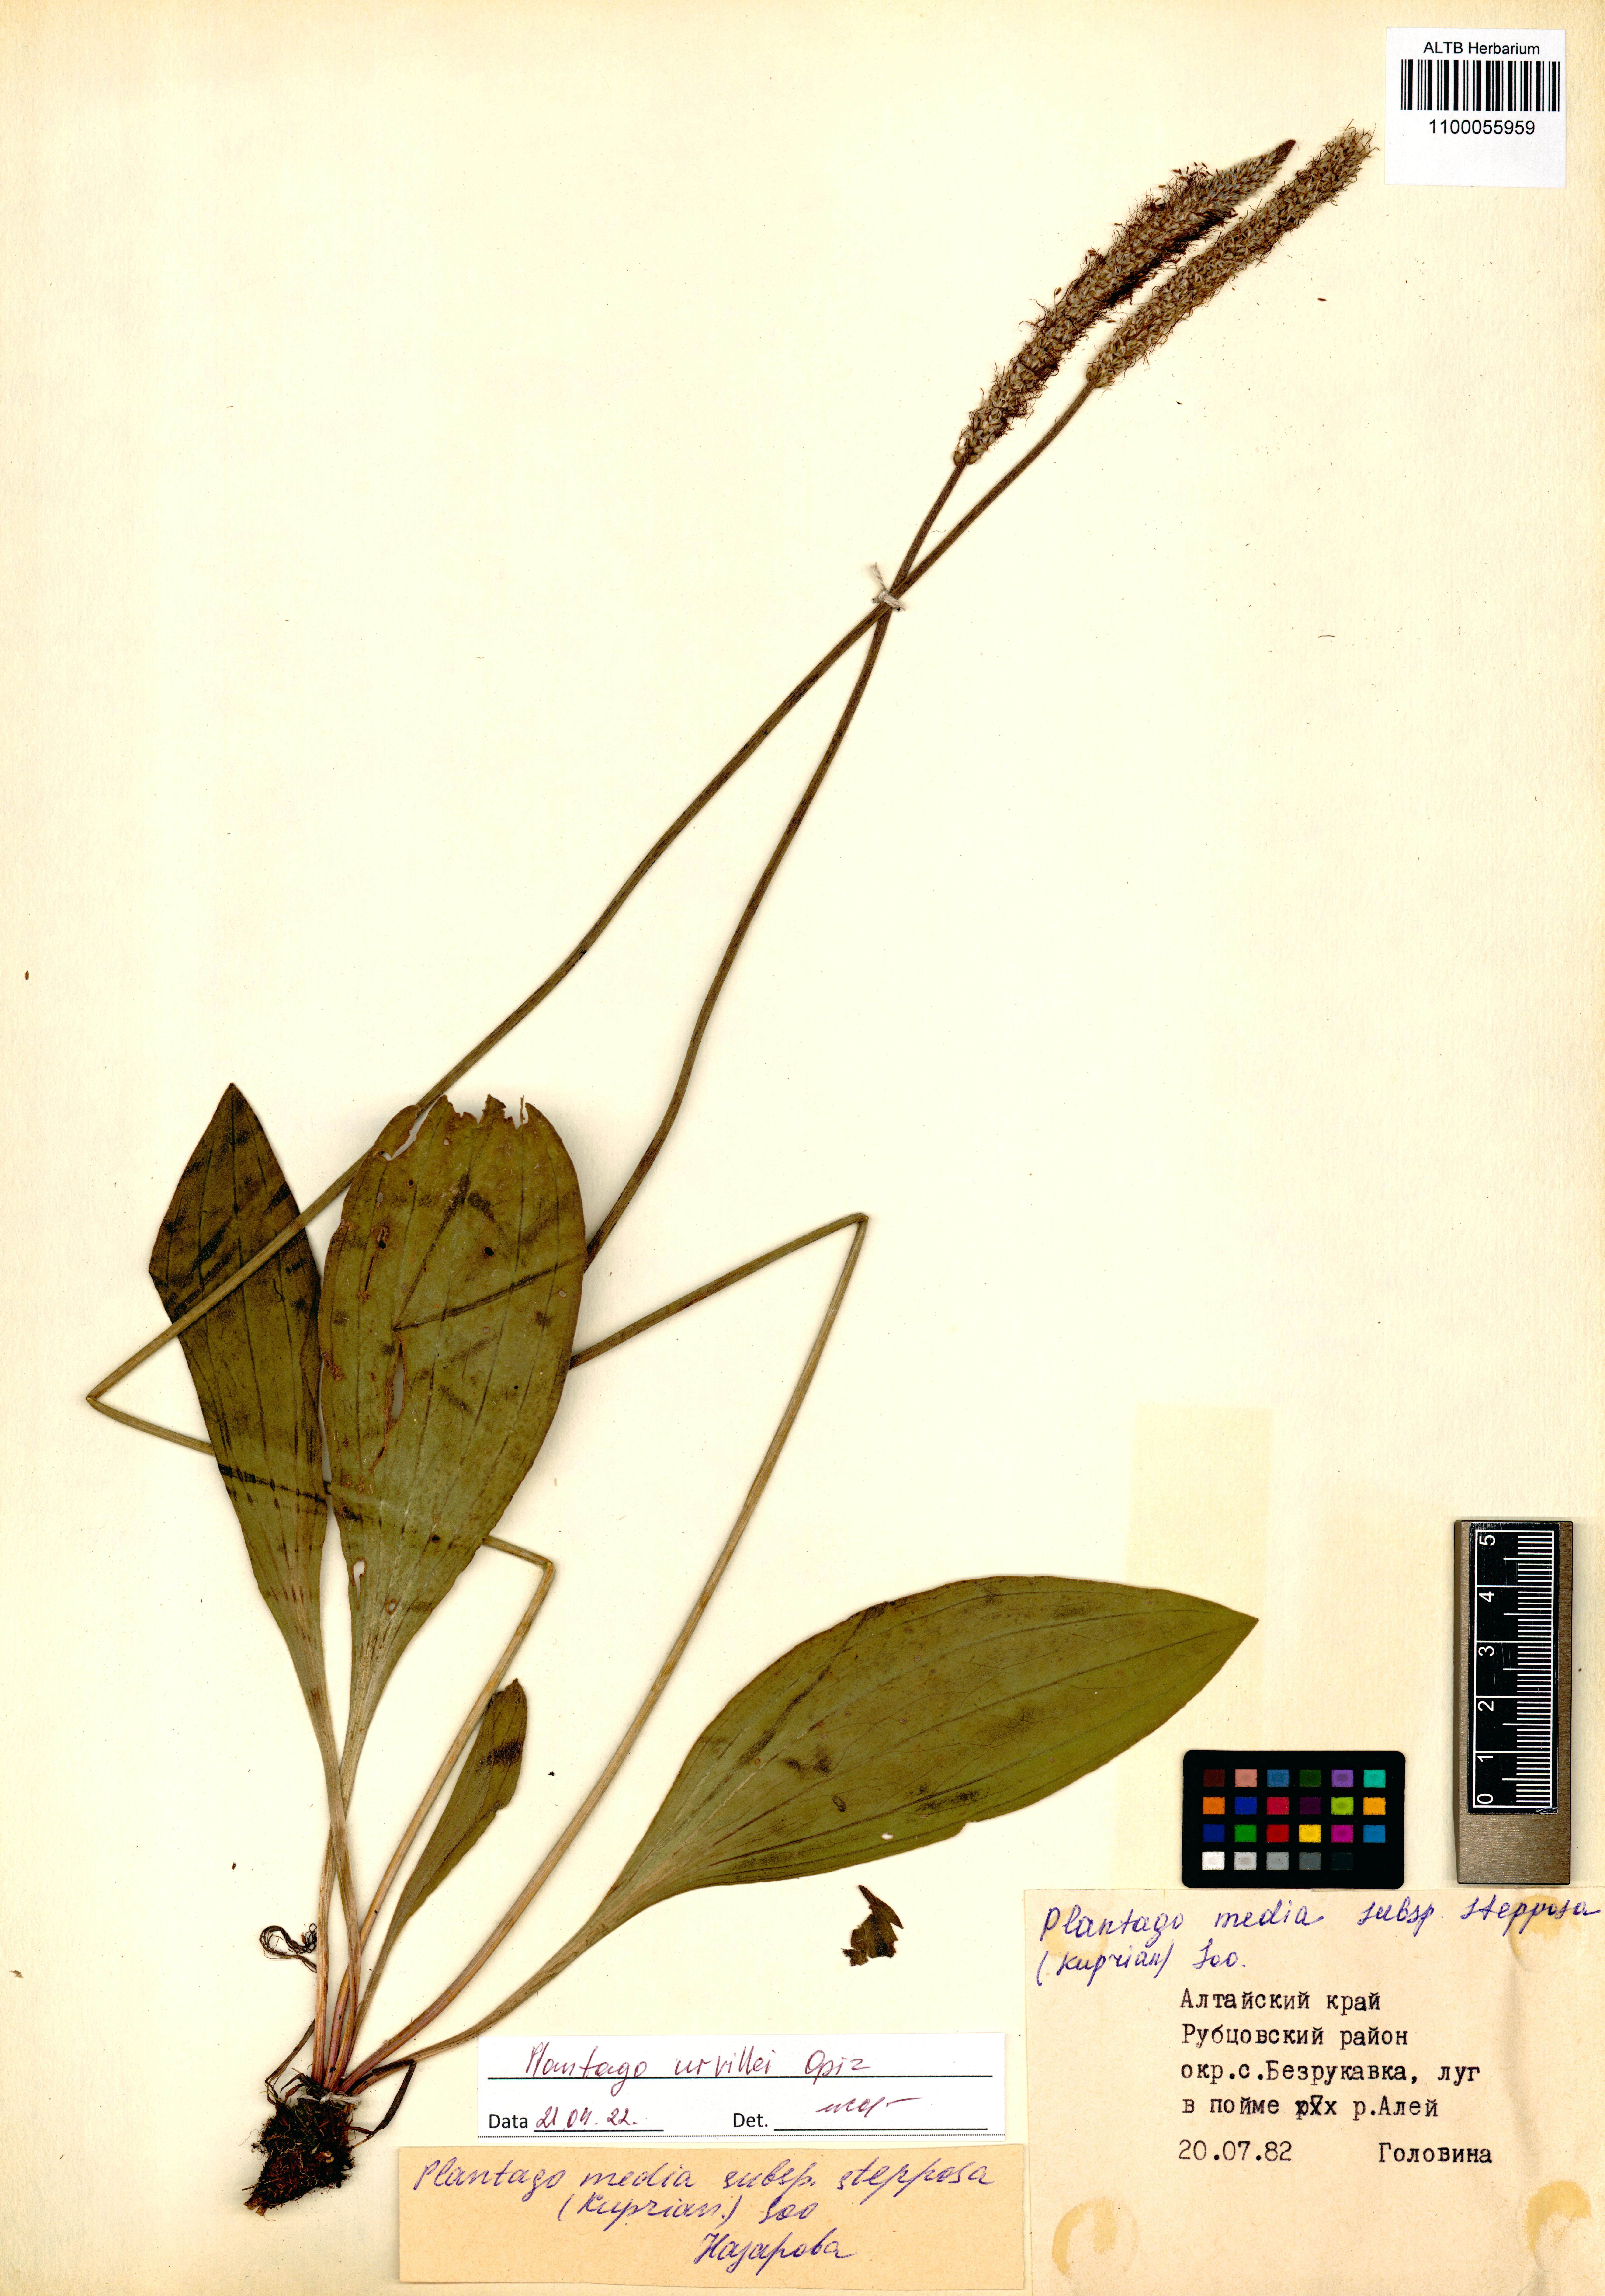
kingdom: Plantae
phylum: Tracheophyta
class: Magnoliopsida
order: Lamiales
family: Plantaginaceae
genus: Plantago
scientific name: Plantago urvillei
